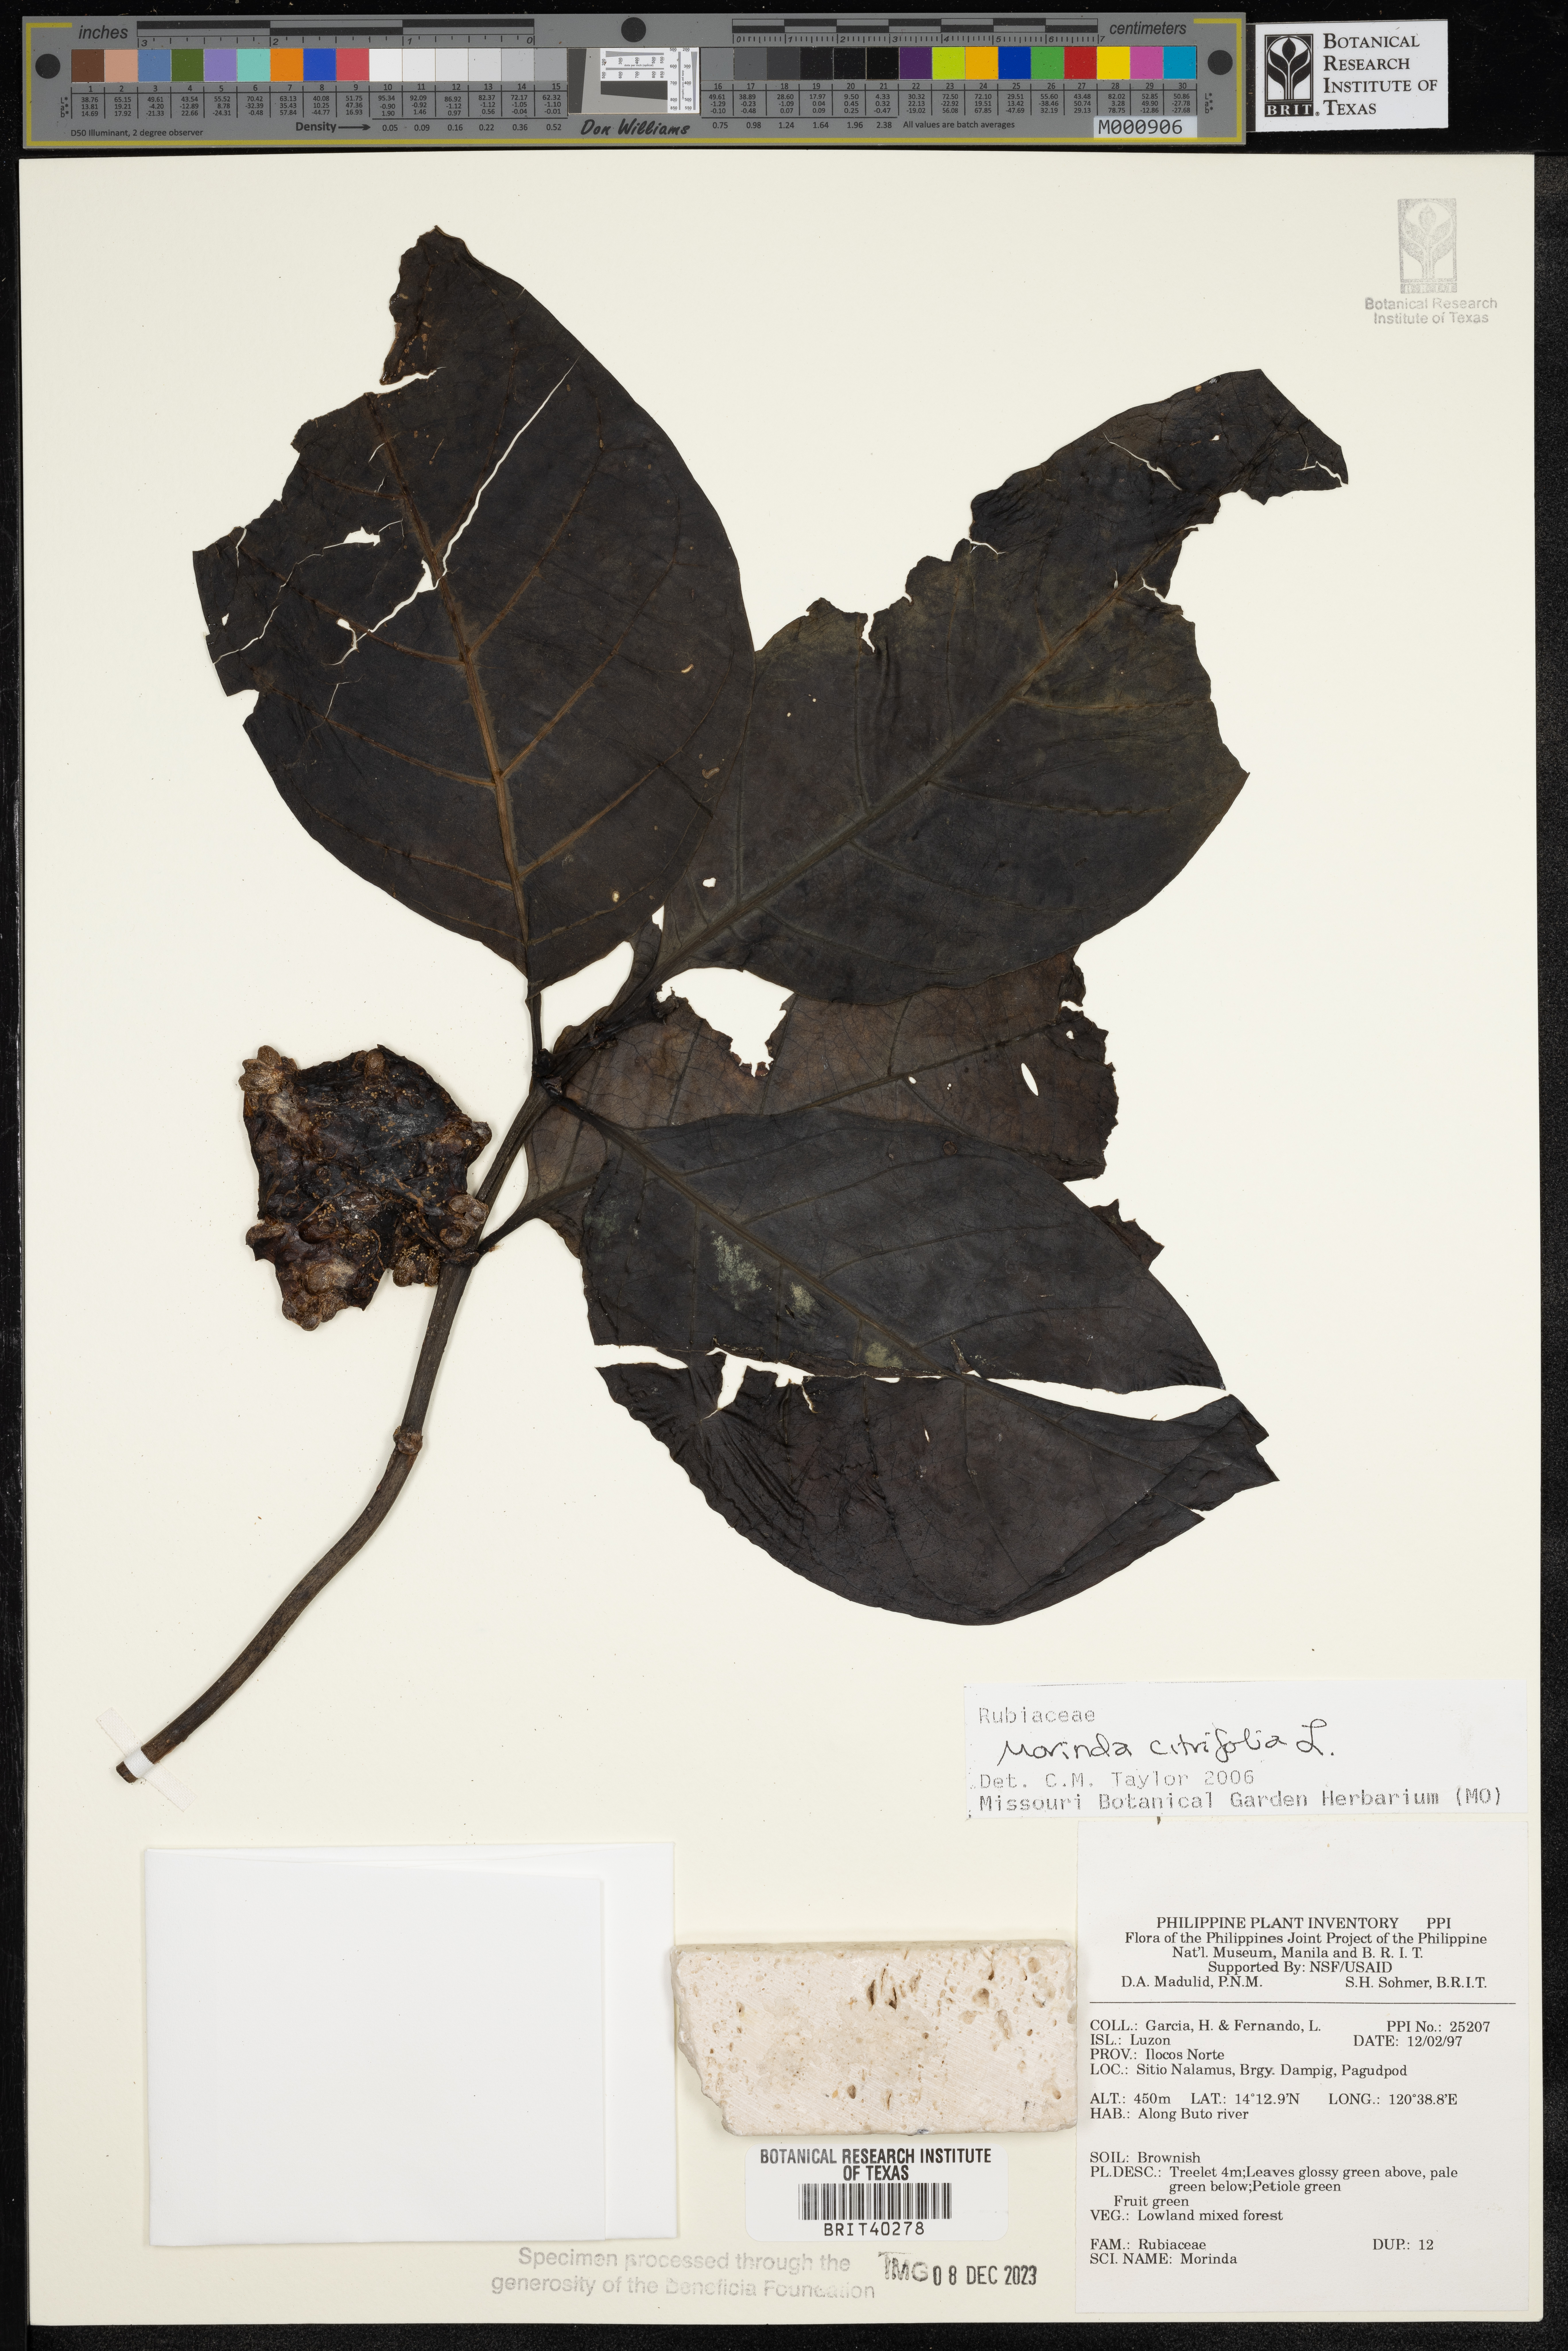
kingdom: Plantae
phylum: Tracheophyta
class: Magnoliopsida
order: Gentianales
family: Rubiaceae
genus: Morinda
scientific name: Morinda citrifolia
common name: Indian-mulberry
